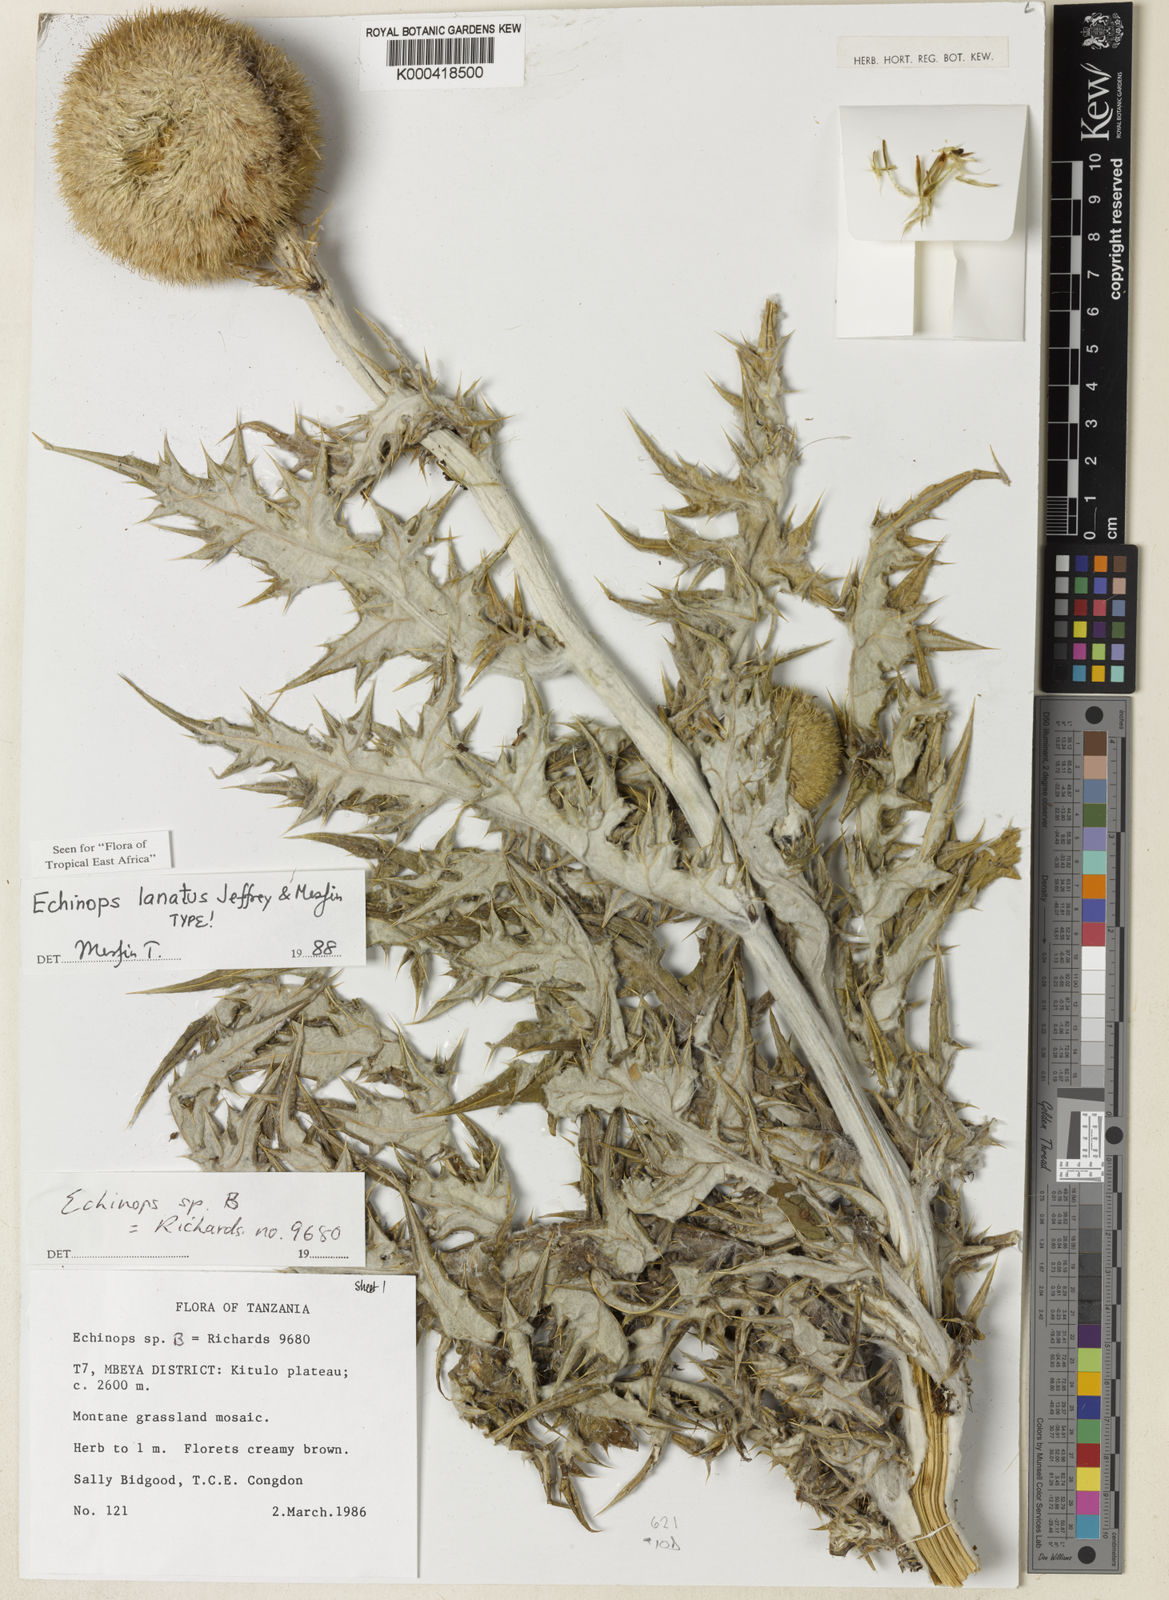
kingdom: Plantae
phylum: Tracheophyta
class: Magnoliopsida
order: Asterales
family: Asteraceae
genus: Echinops
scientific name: Echinops lanatus
